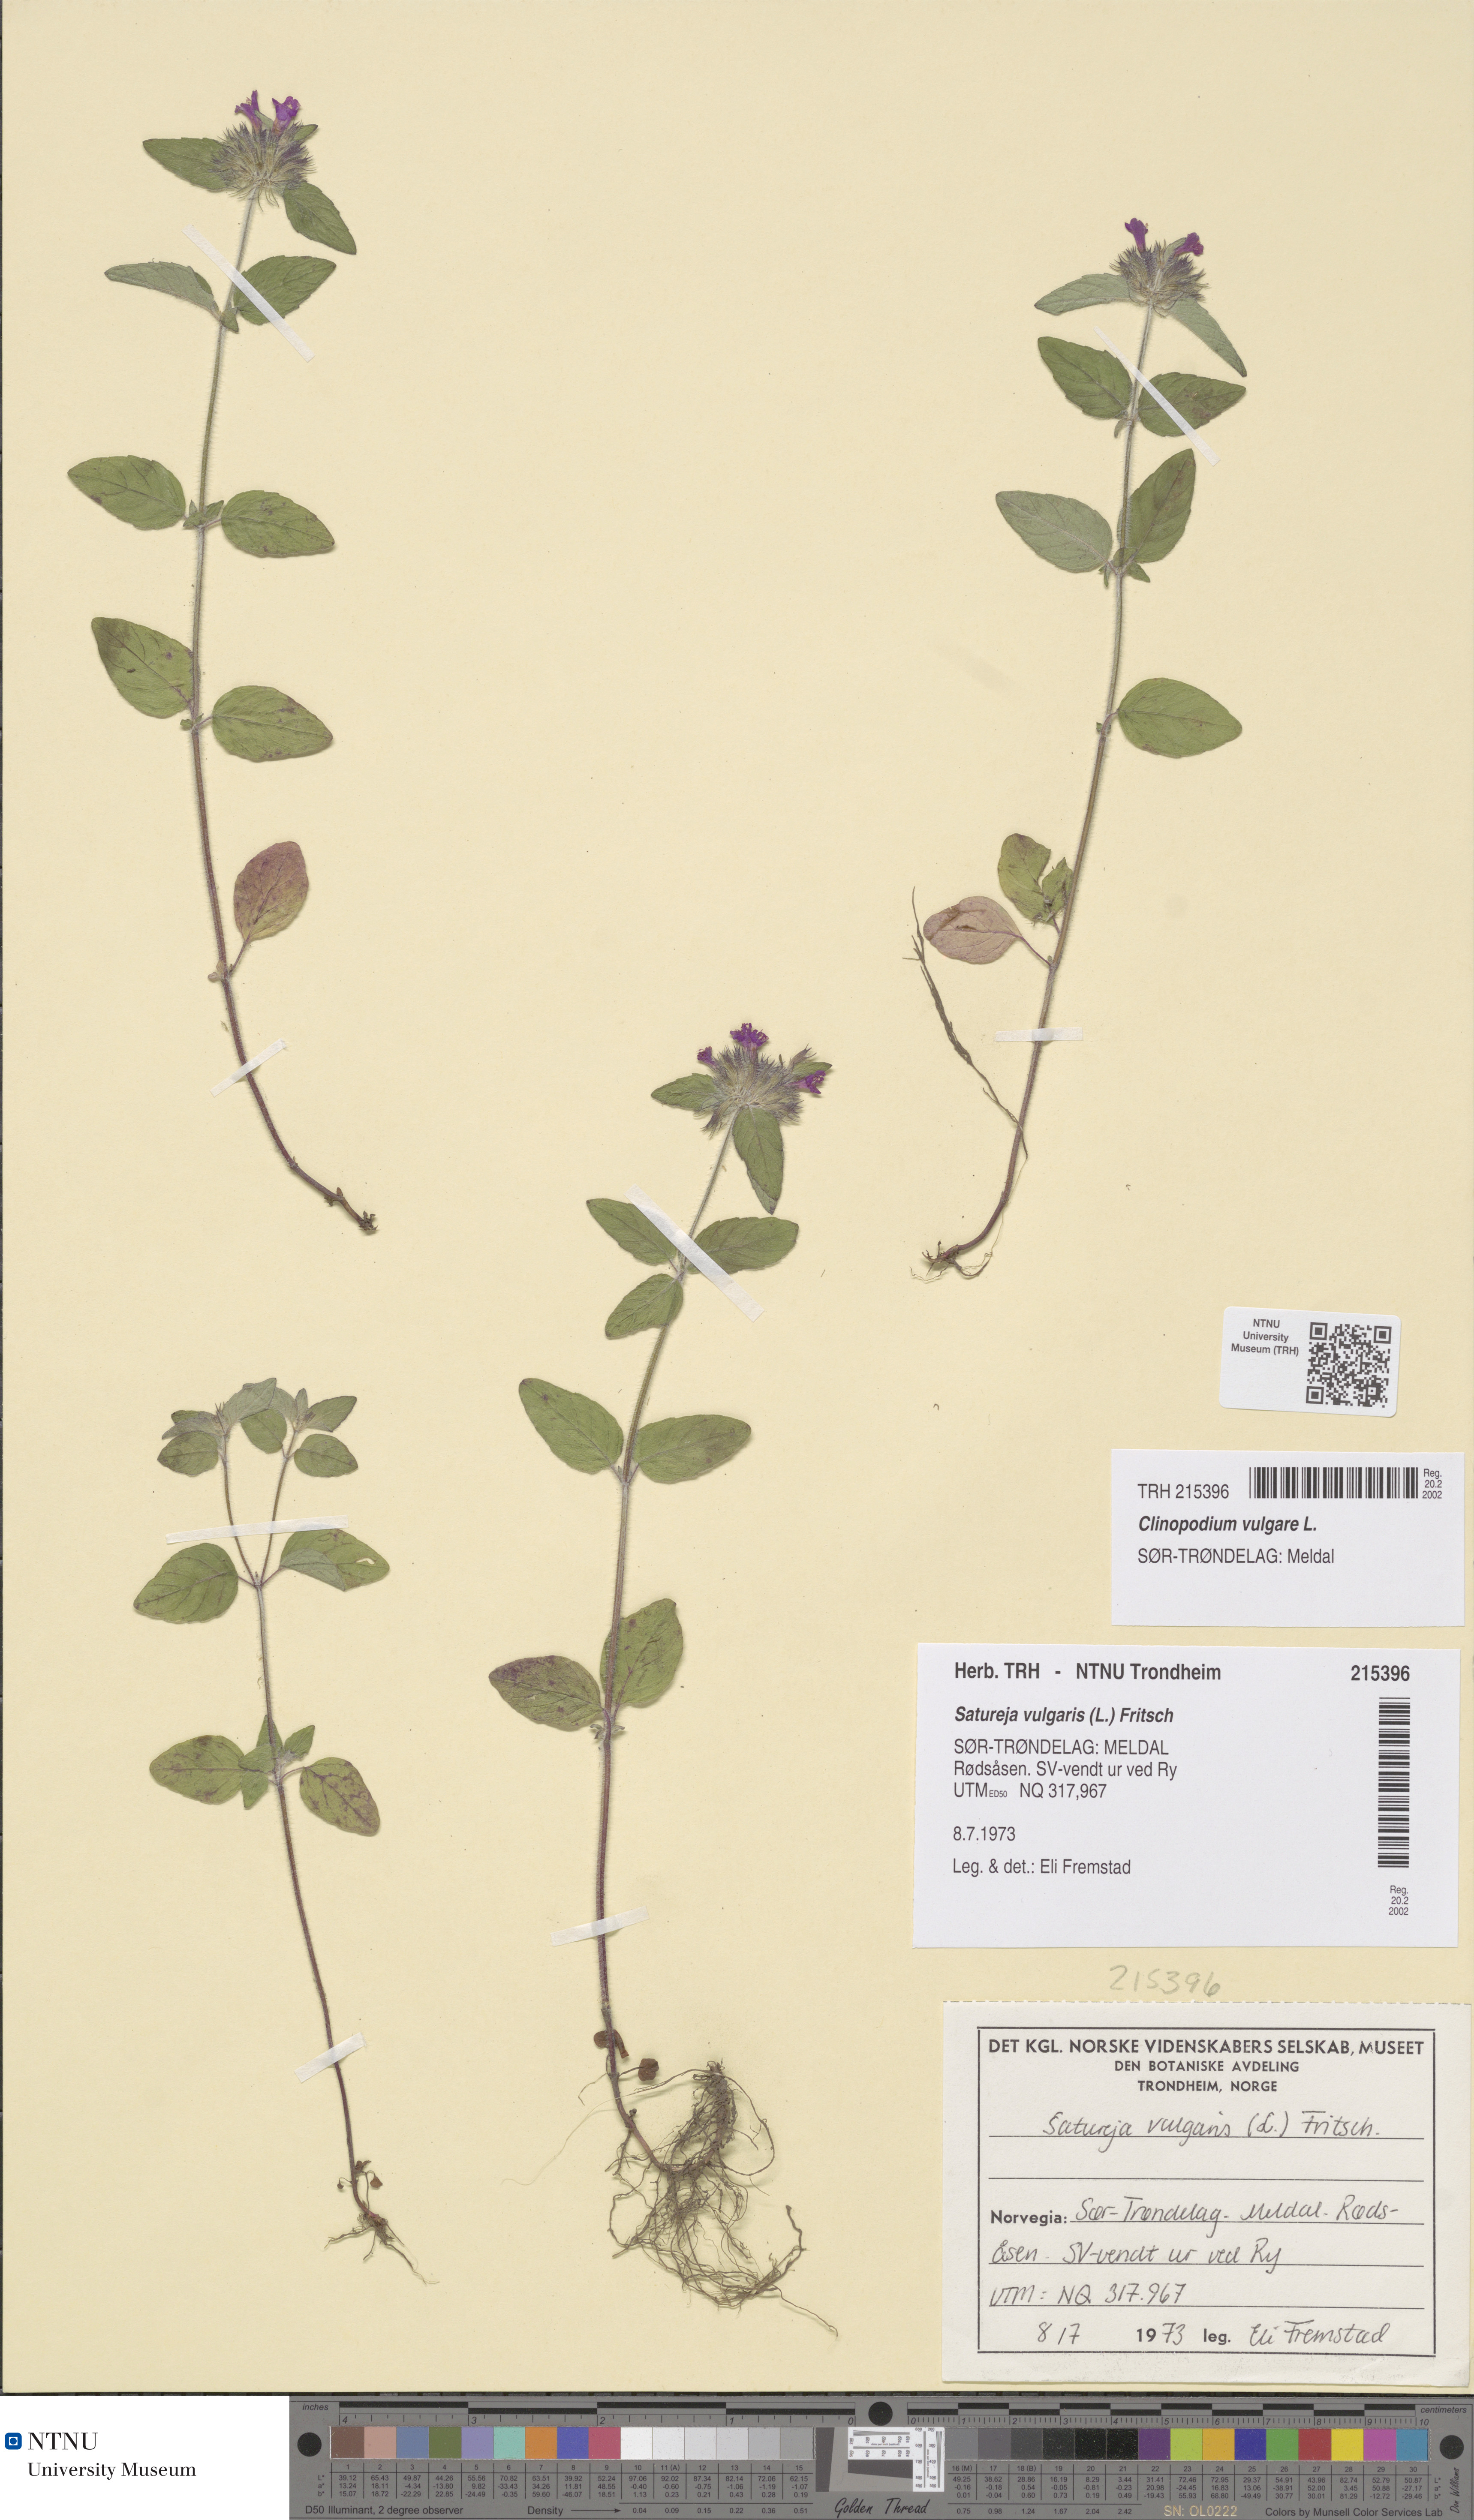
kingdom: Plantae
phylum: Tracheophyta
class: Magnoliopsida
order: Lamiales
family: Lamiaceae
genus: Clinopodium
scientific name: Clinopodium vulgare
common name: Wild basil
